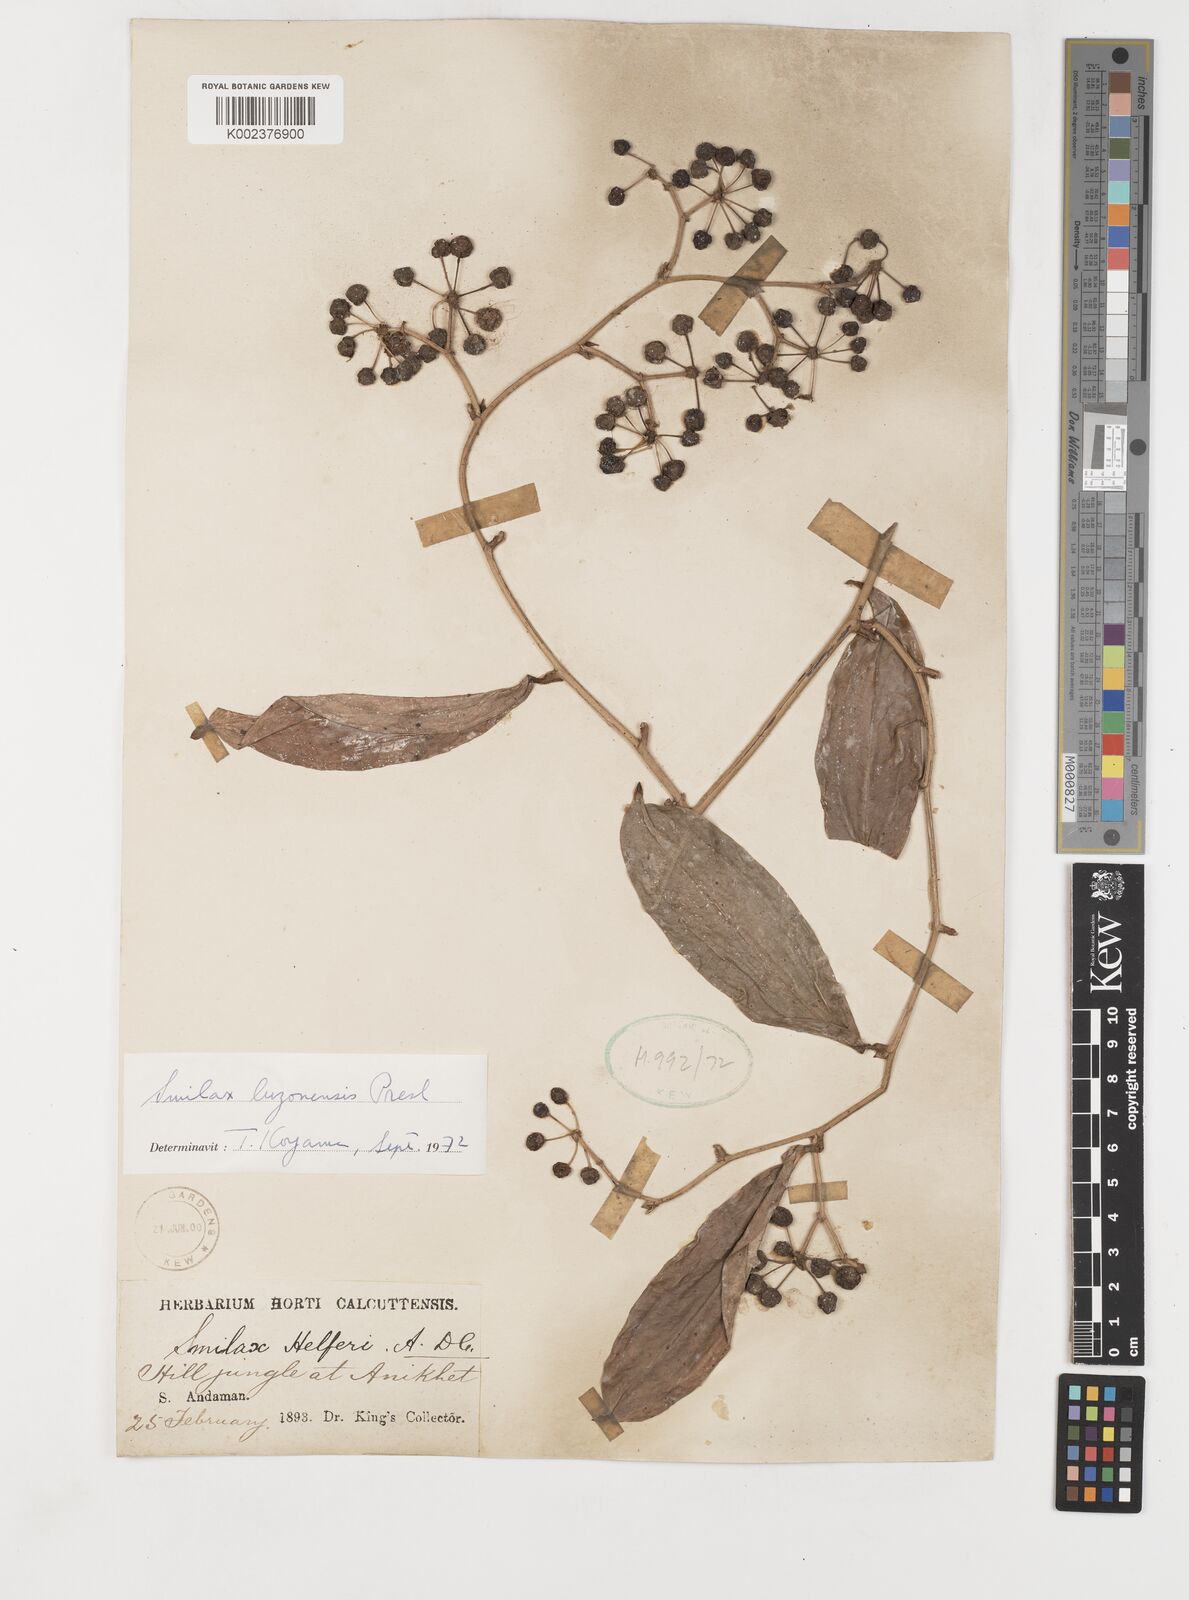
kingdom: Plantae
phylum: Tracheophyta
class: Liliopsida
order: Liliales
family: Smilacaceae
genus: Smilax
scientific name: Smilax luzonensis
